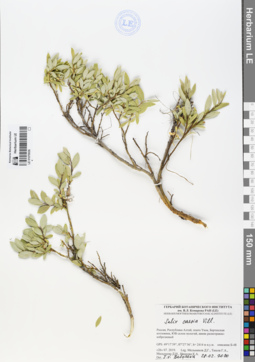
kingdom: Plantae
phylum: Tracheophyta
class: Magnoliopsida
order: Malpighiales
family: Salicaceae
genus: Salix
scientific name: Salix caesia
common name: Blue willow
